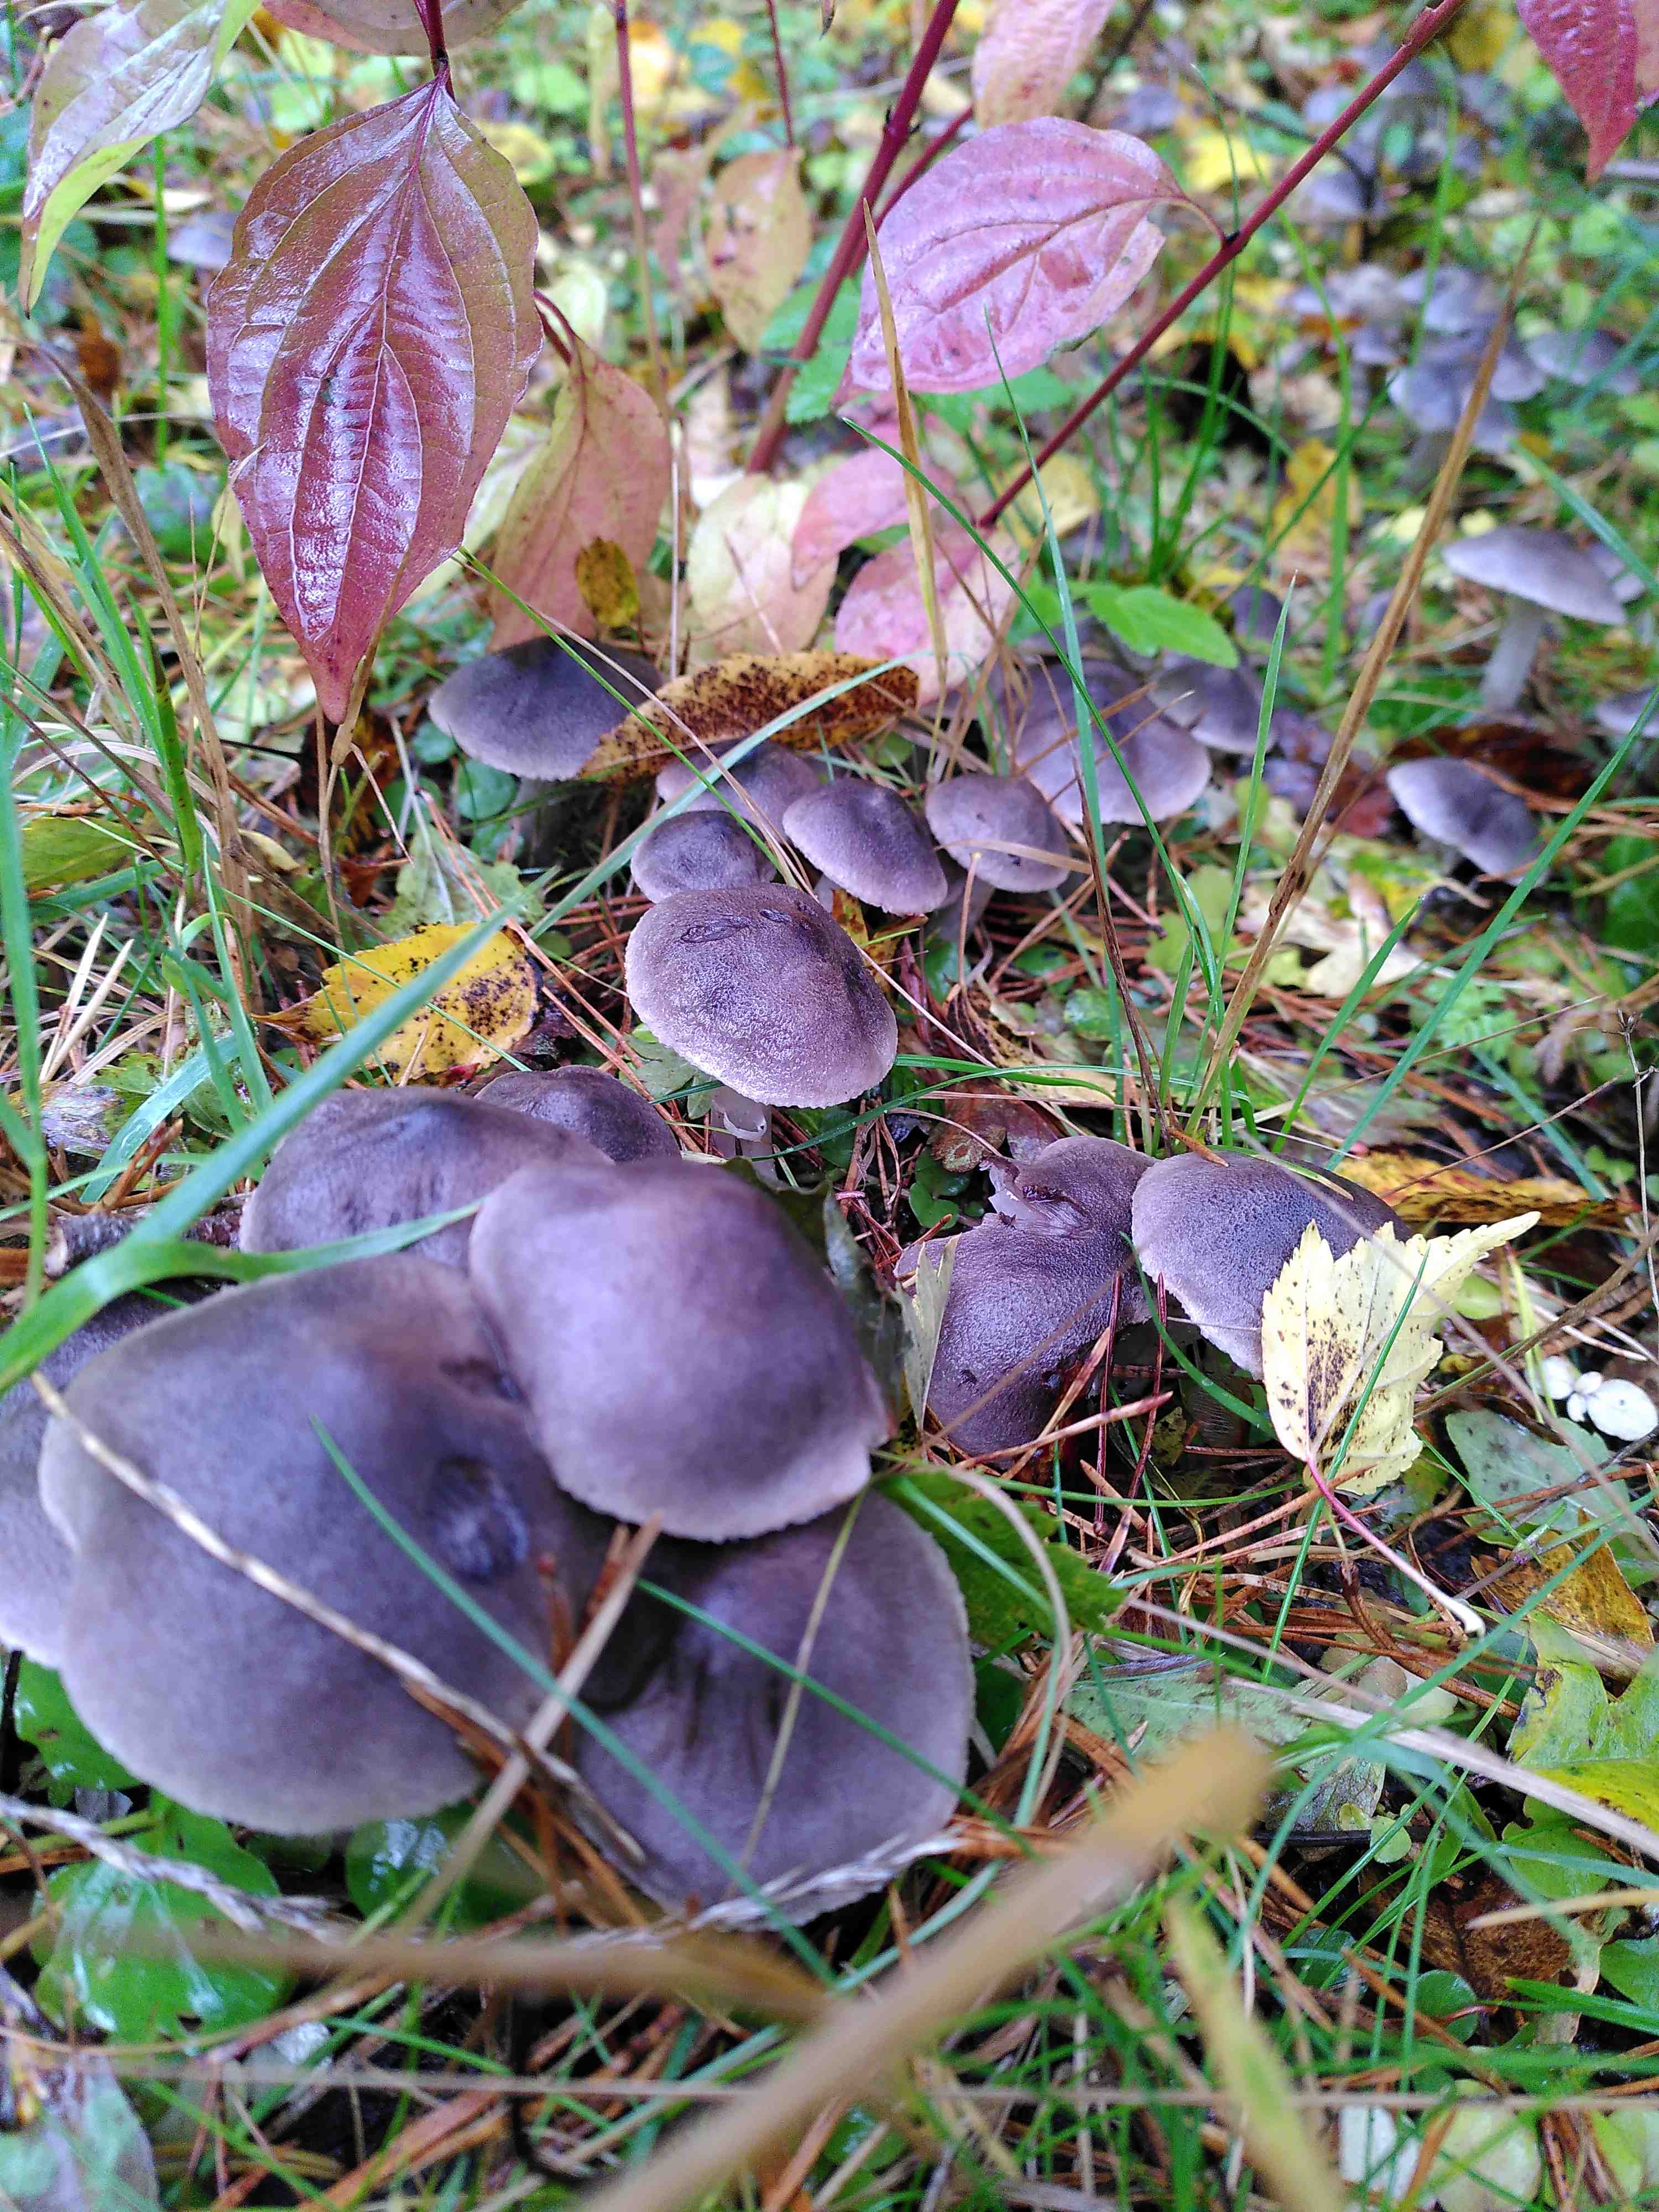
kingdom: Fungi
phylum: Basidiomycota
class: Agaricomycetes
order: Agaricales
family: Tricholomataceae
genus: Tricholoma
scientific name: Tricholoma terreum
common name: jordfarvet ridderhat
